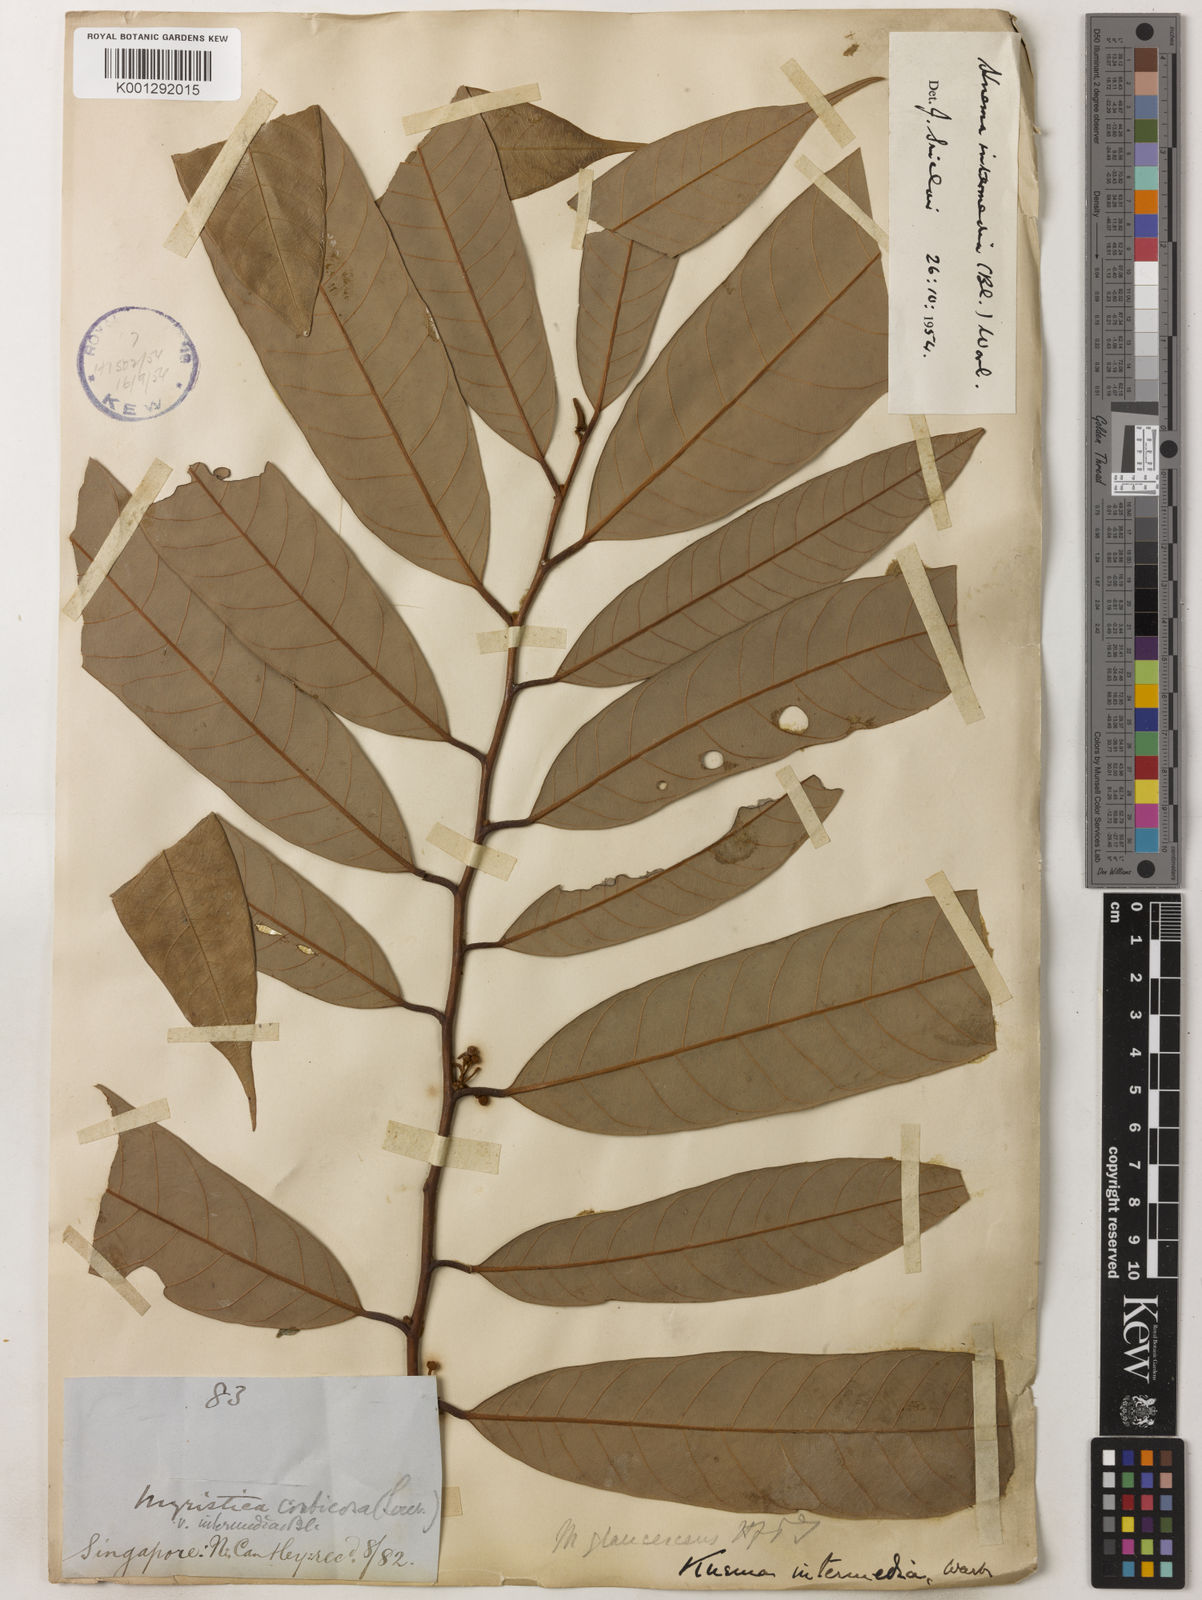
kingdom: Plantae
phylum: Tracheophyta
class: Magnoliopsida
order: Magnoliales
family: Myristicaceae
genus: Knema
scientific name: Knema intermedia
